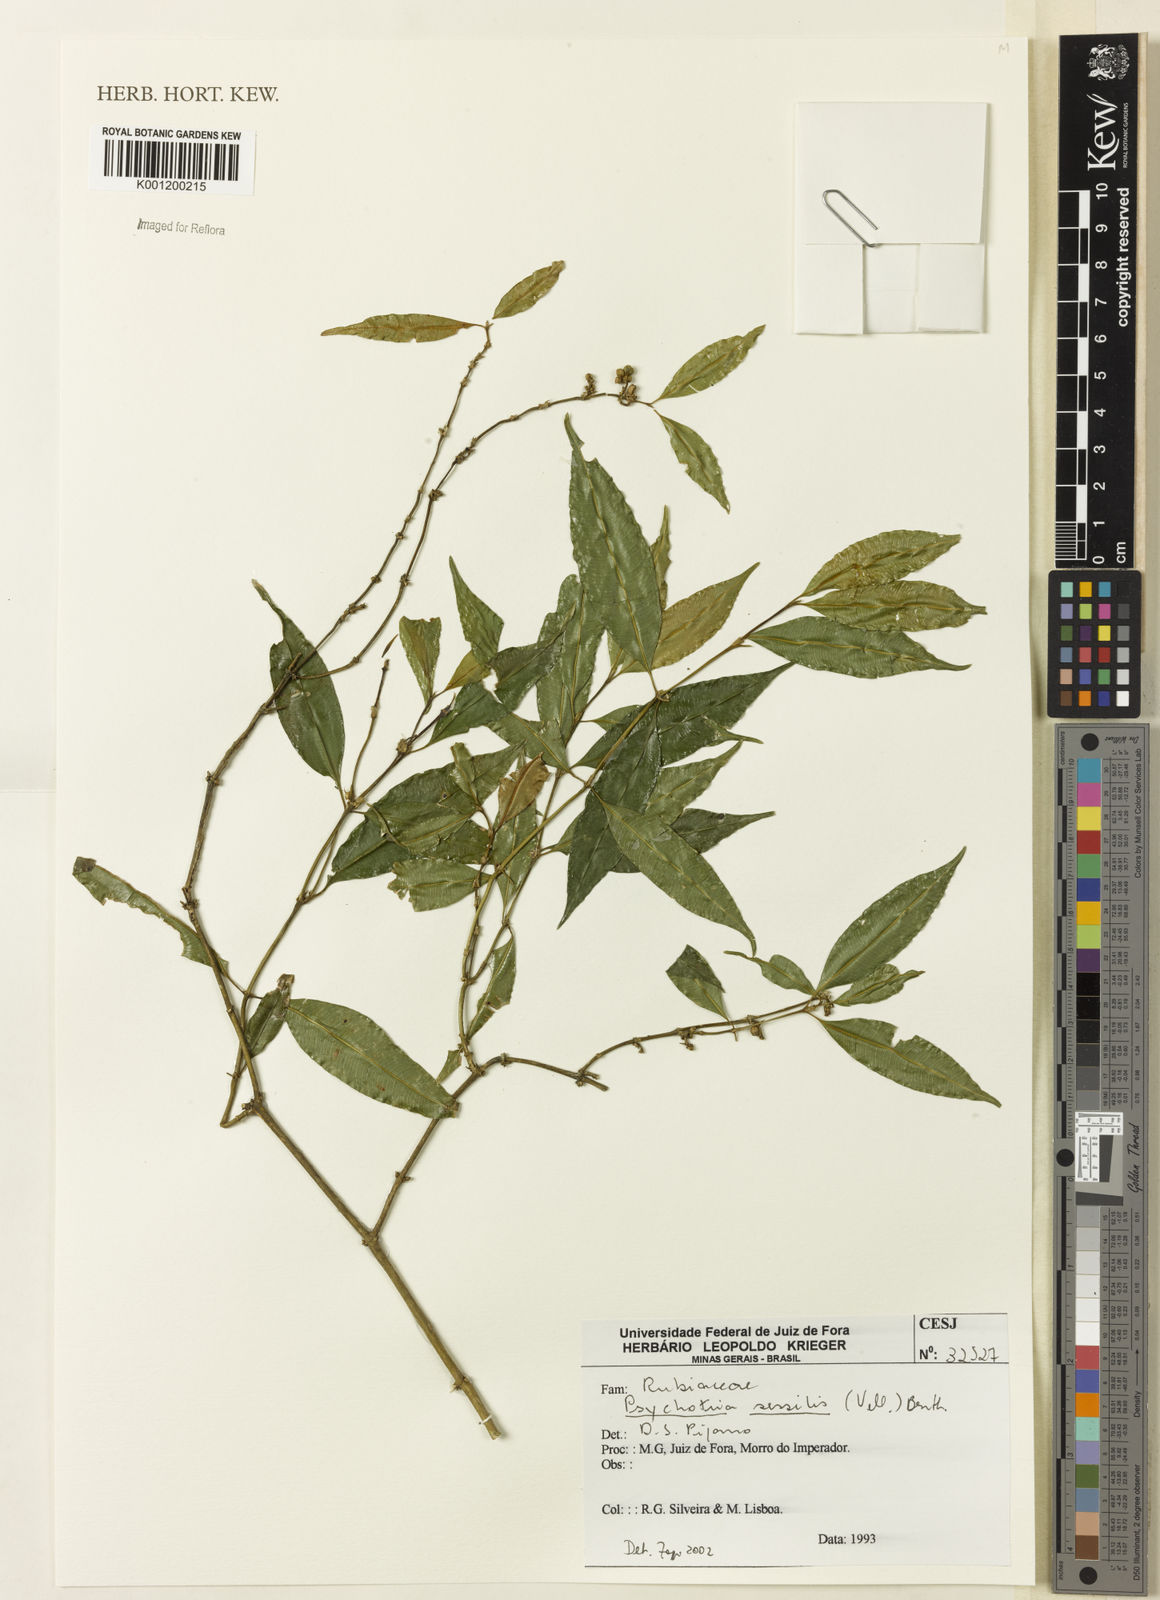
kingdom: Plantae
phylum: Tracheophyta
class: Magnoliopsida
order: Gentianales
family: Rubiaceae
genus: Rudgea
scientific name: Rudgea sessilis
